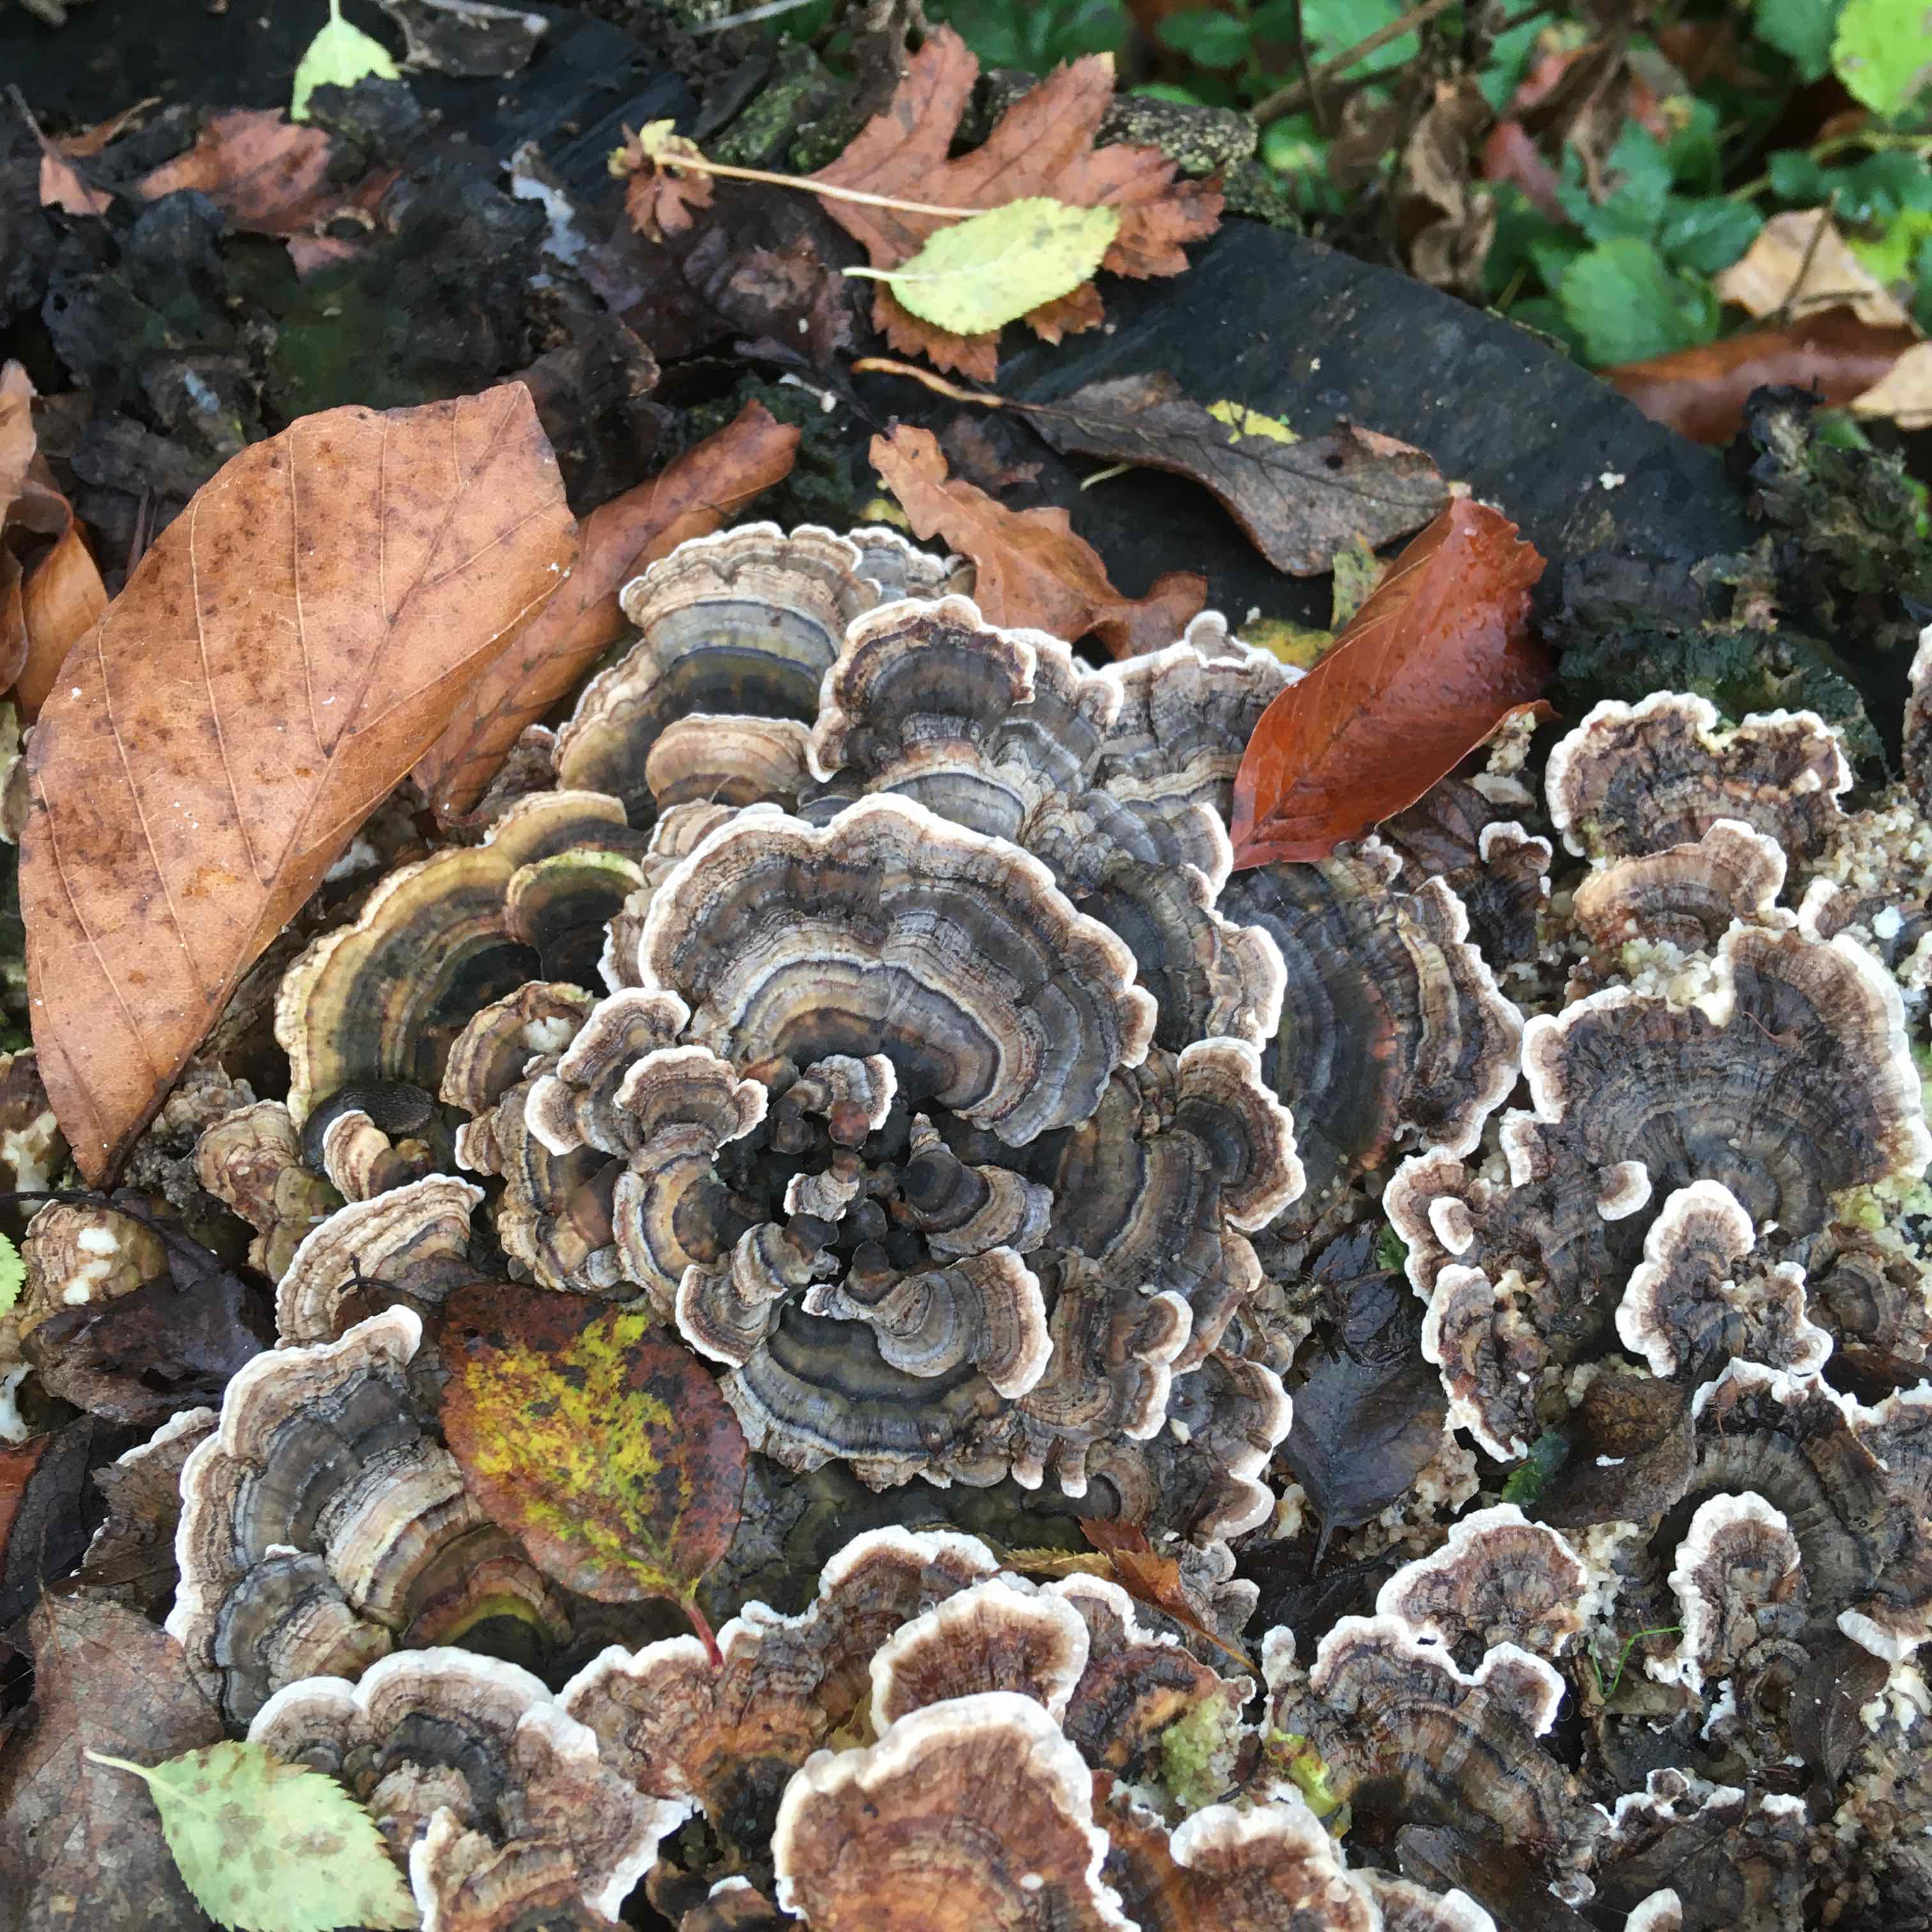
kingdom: Fungi
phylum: Basidiomycota
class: Agaricomycetes
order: Polyporales
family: Polyporaceae
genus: Trametes
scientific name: Trametes versicolor
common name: broget læderporesvamp
